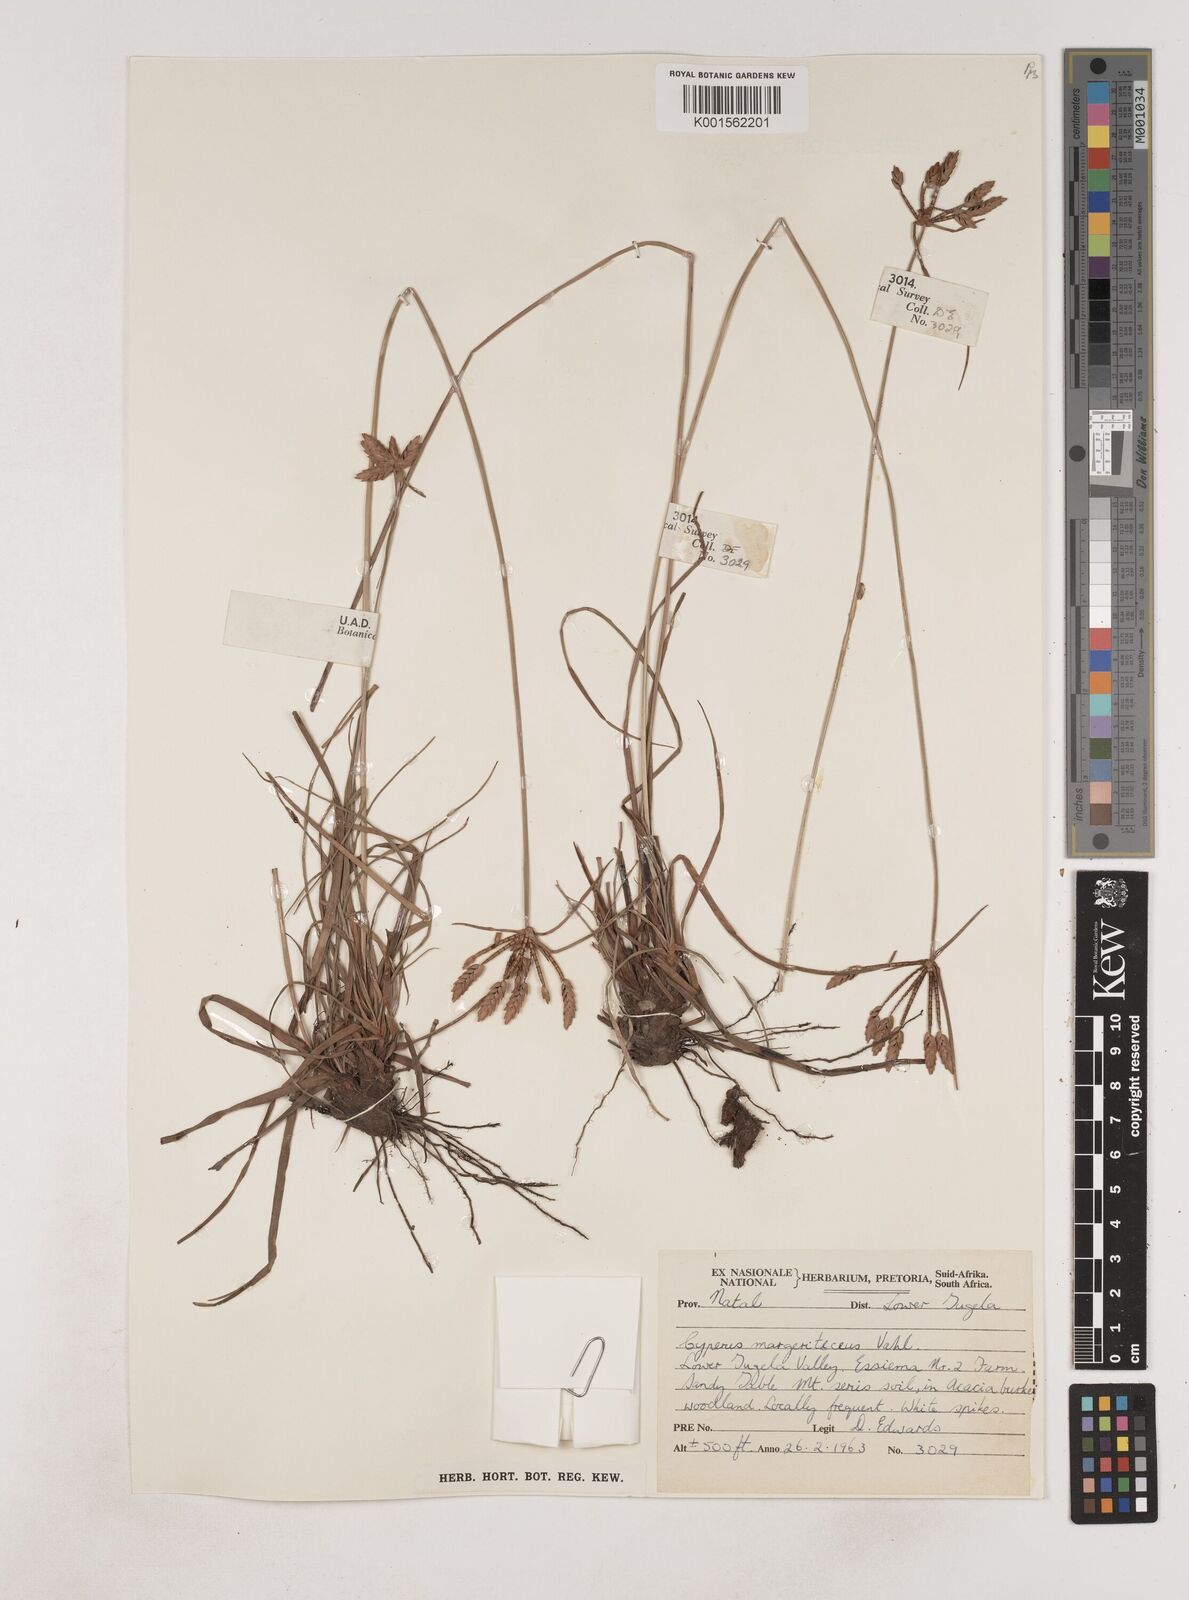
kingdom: Plantae
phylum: Tracheophyta
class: Liliopsida
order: Poales
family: Cyperaceae
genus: Cyperus
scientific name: Cyperus margaritaceus
